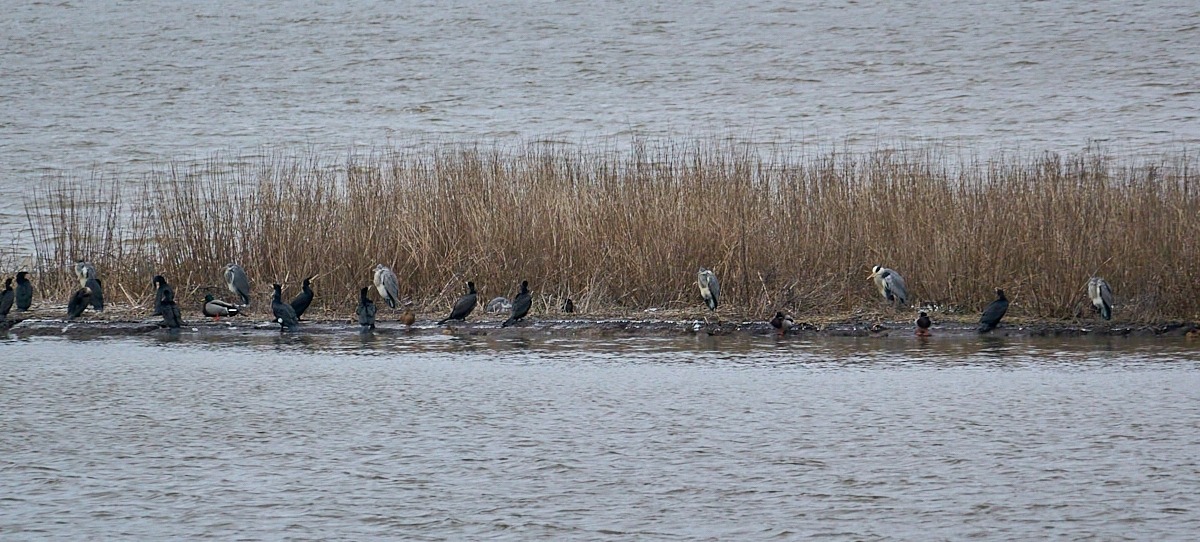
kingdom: Animalia
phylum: Chordata
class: Aves
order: Pelecaniformes
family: Ardeidae
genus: Ardea
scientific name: Ardea cinerea
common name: Fiskehejre
